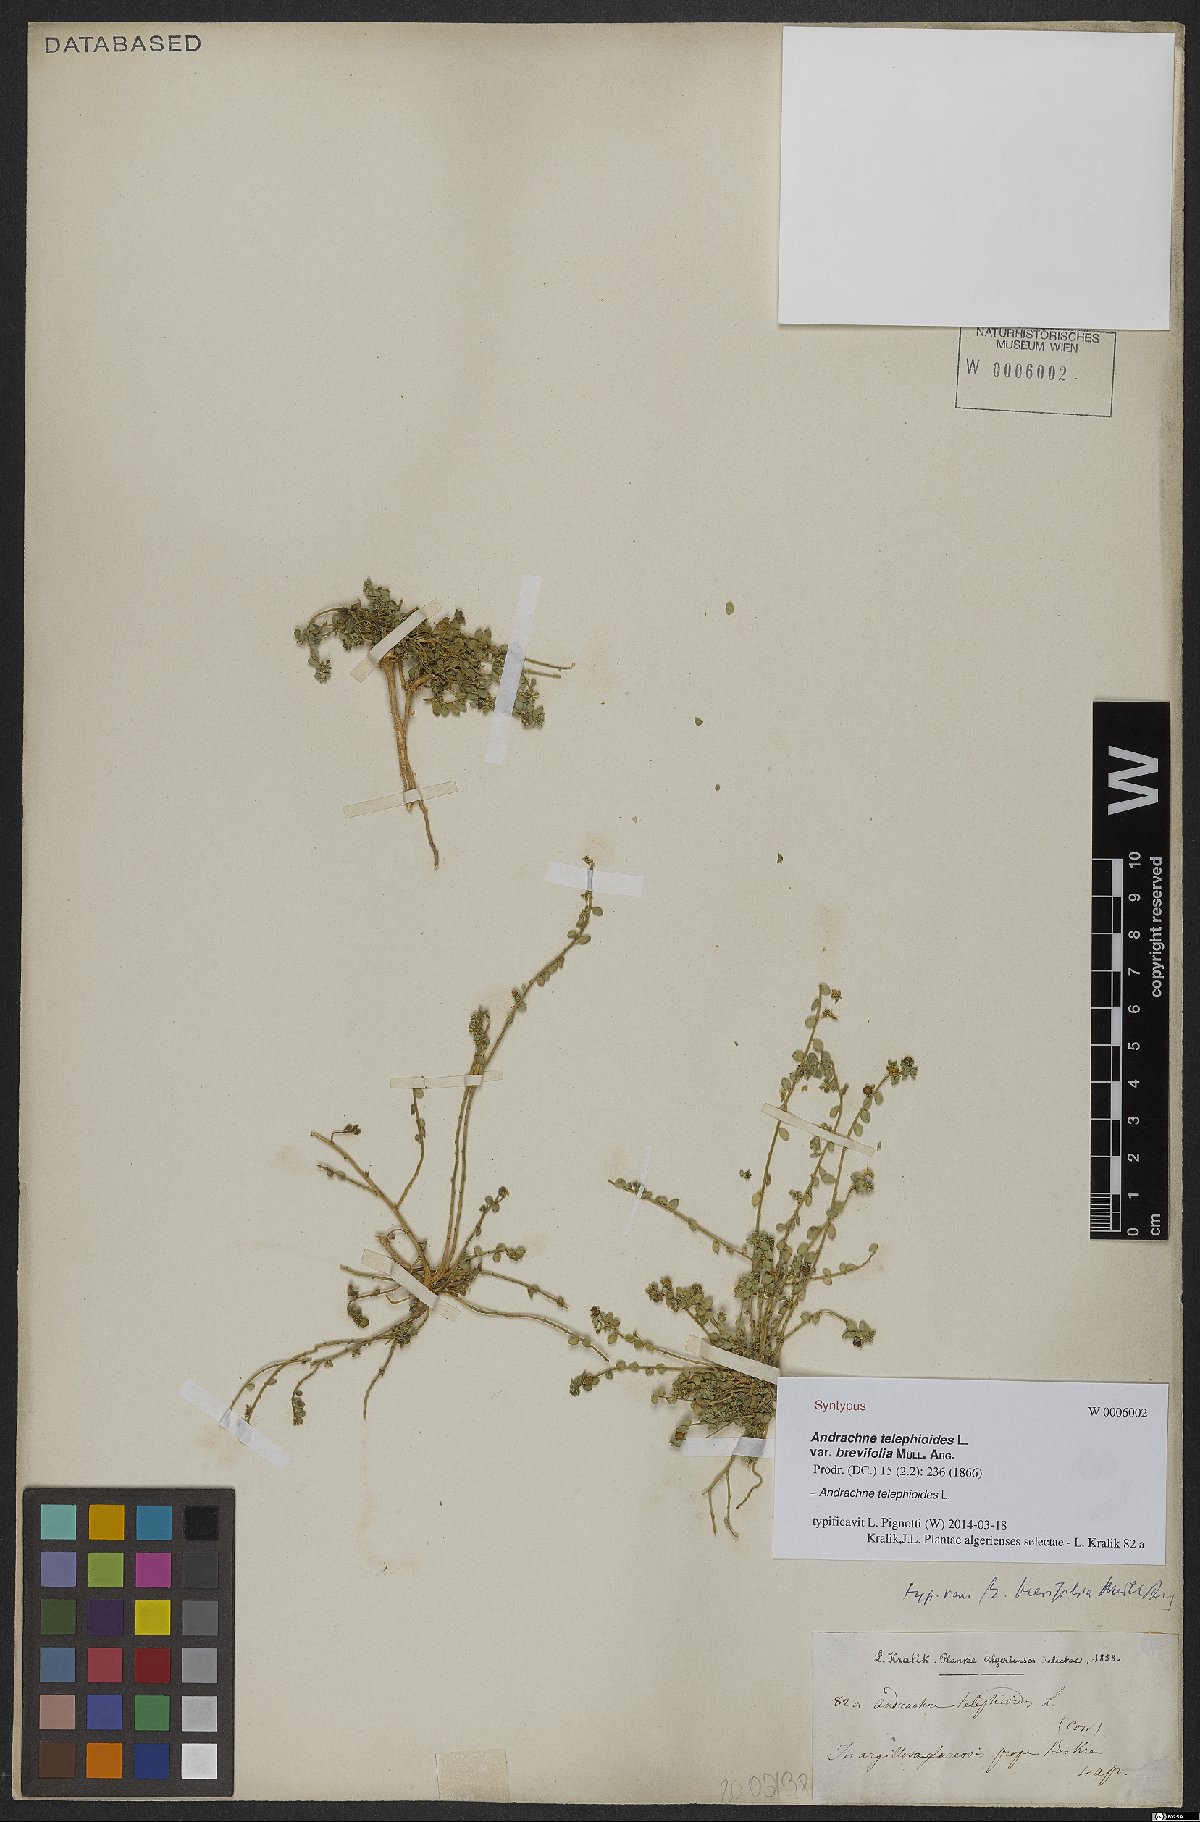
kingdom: Plantae
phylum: Tracheophyta
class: Magnoliopsida
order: Malpighiales
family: Phyllanthaceae
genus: Andrachne
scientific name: Andrachne telephioides
